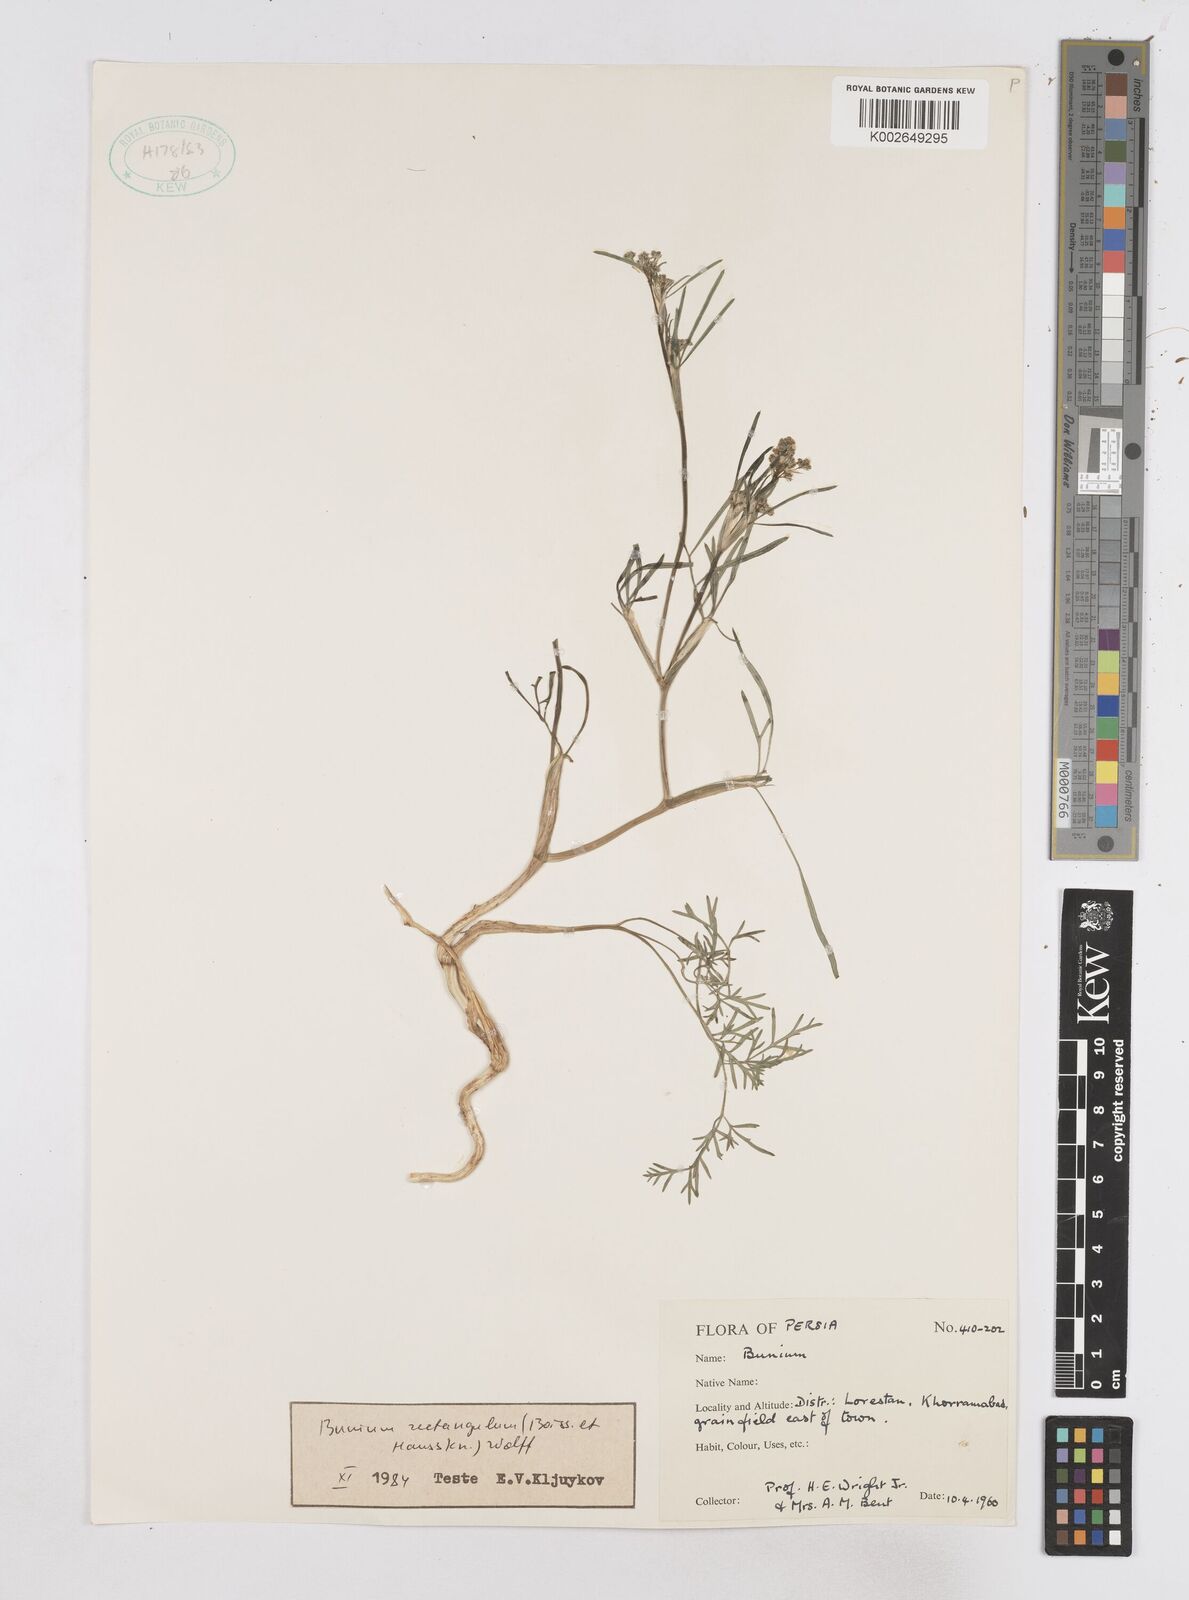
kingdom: Plantae
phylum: Tracheophyta
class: Magnoliopsida
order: Apiales
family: Apiaceae
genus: Bunium
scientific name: Bunium rectangulum
